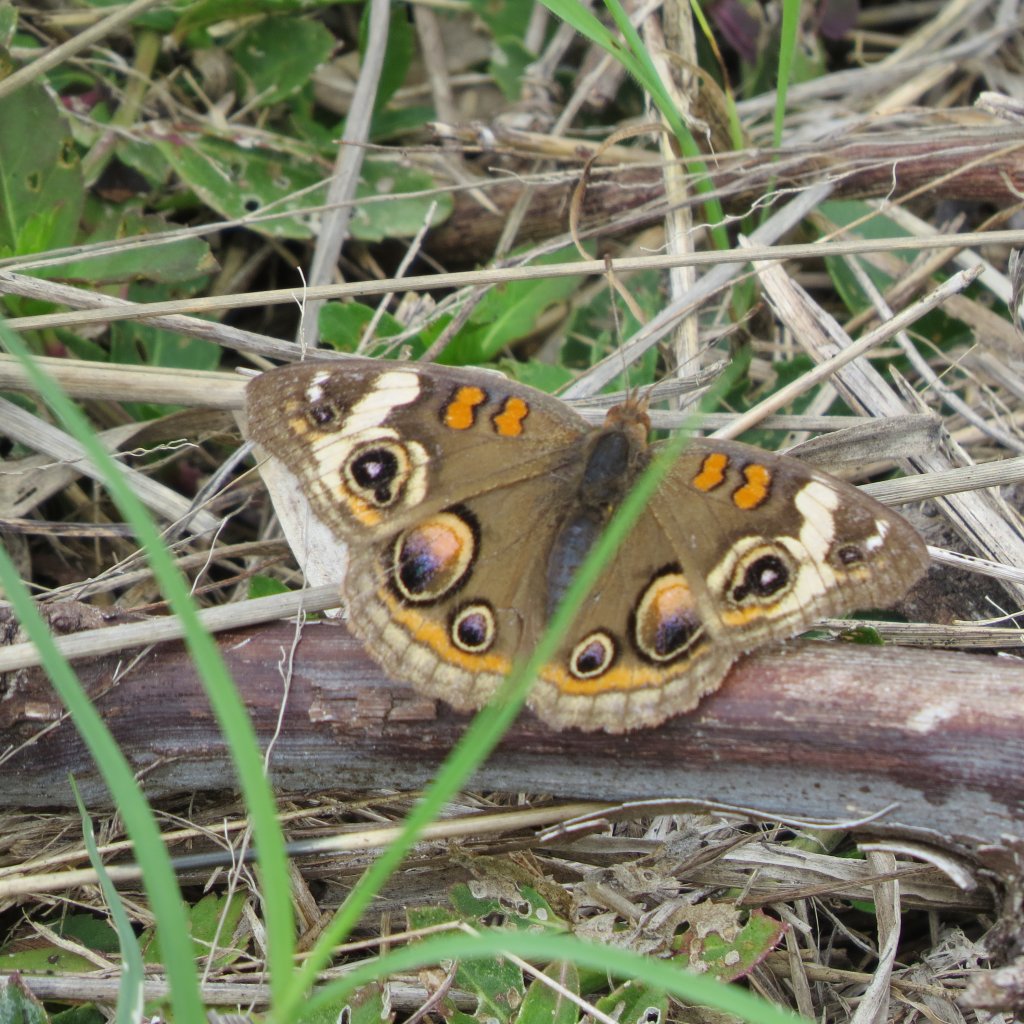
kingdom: Animalia
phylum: Arthropoda
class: Insecta
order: Lepidoptera
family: Nymphalidae
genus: Junonia
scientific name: Junonia coenia
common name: Common Buckeye
